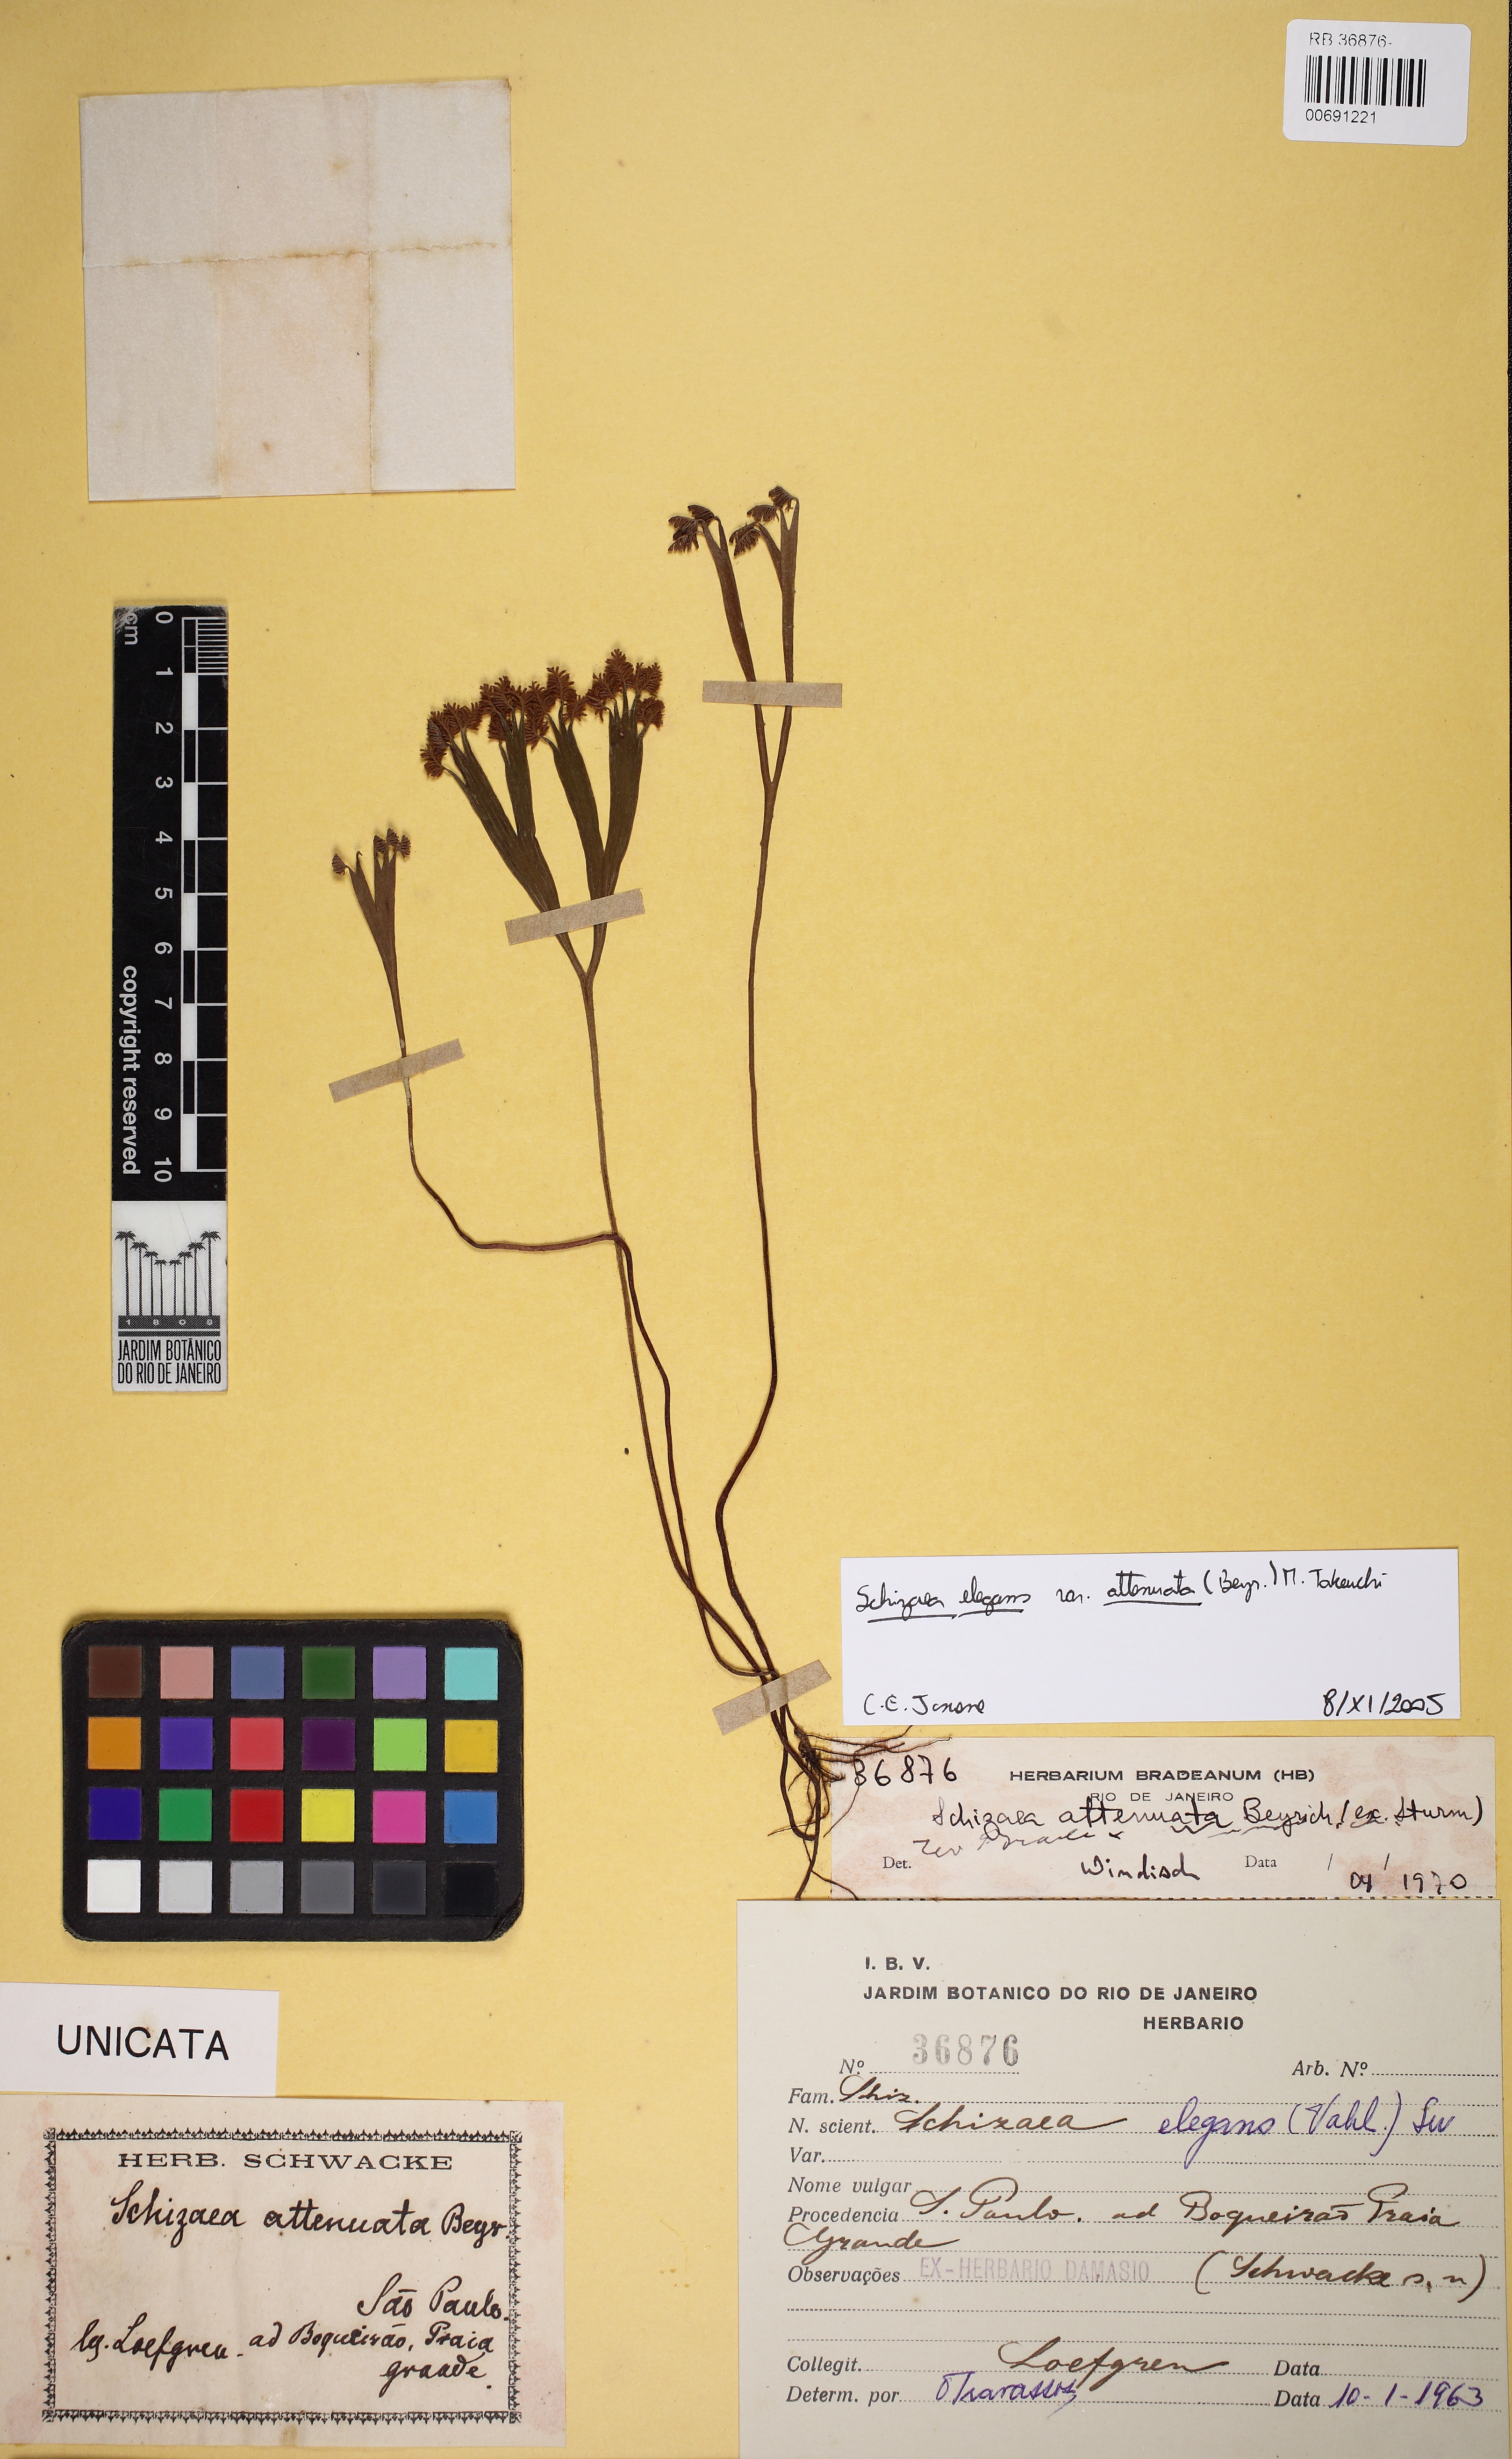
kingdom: Plantae
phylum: Tracheophyta
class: Polypodiopsida
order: Schizaeales
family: Schizaeaceae
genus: Schizaea
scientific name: Schizaea elegans
